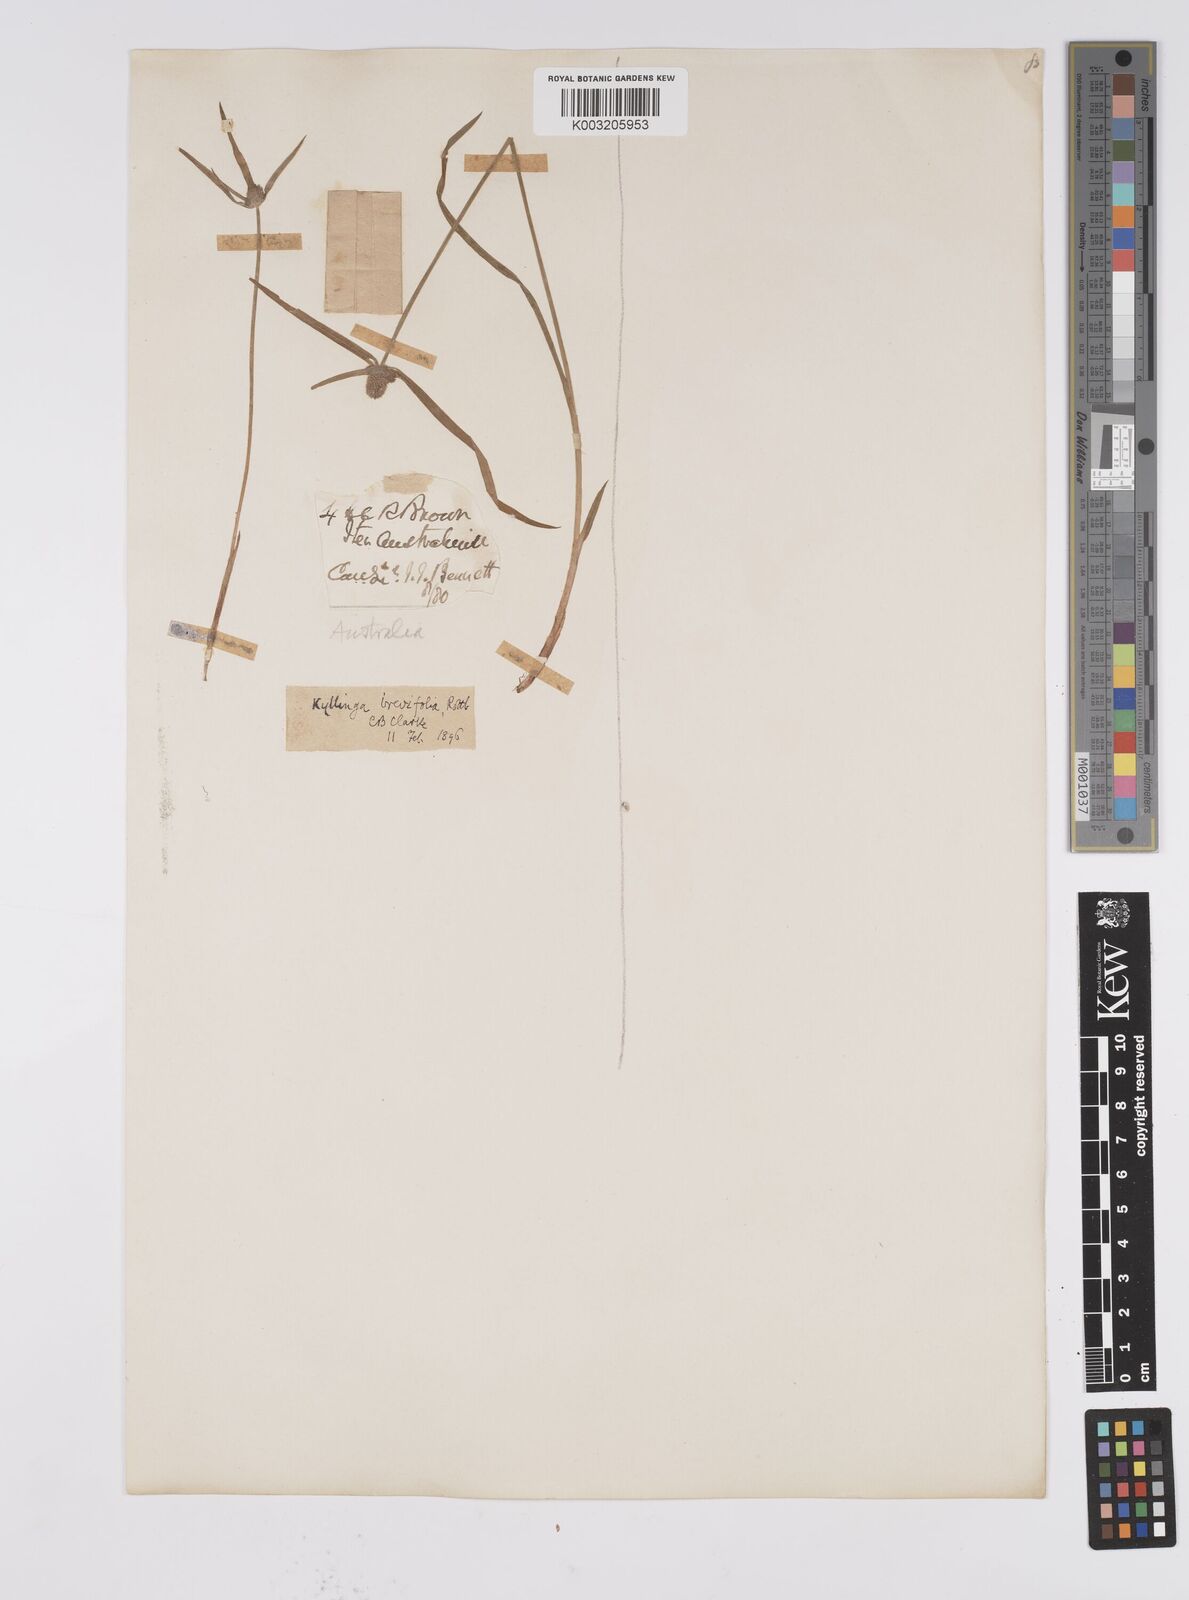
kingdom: Plantae
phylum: Tracheophyta
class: Liliopsida
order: Poales
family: Cyperaceae
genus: Cyperus
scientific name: Cyperus brevifolius
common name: Globe kyllinga
